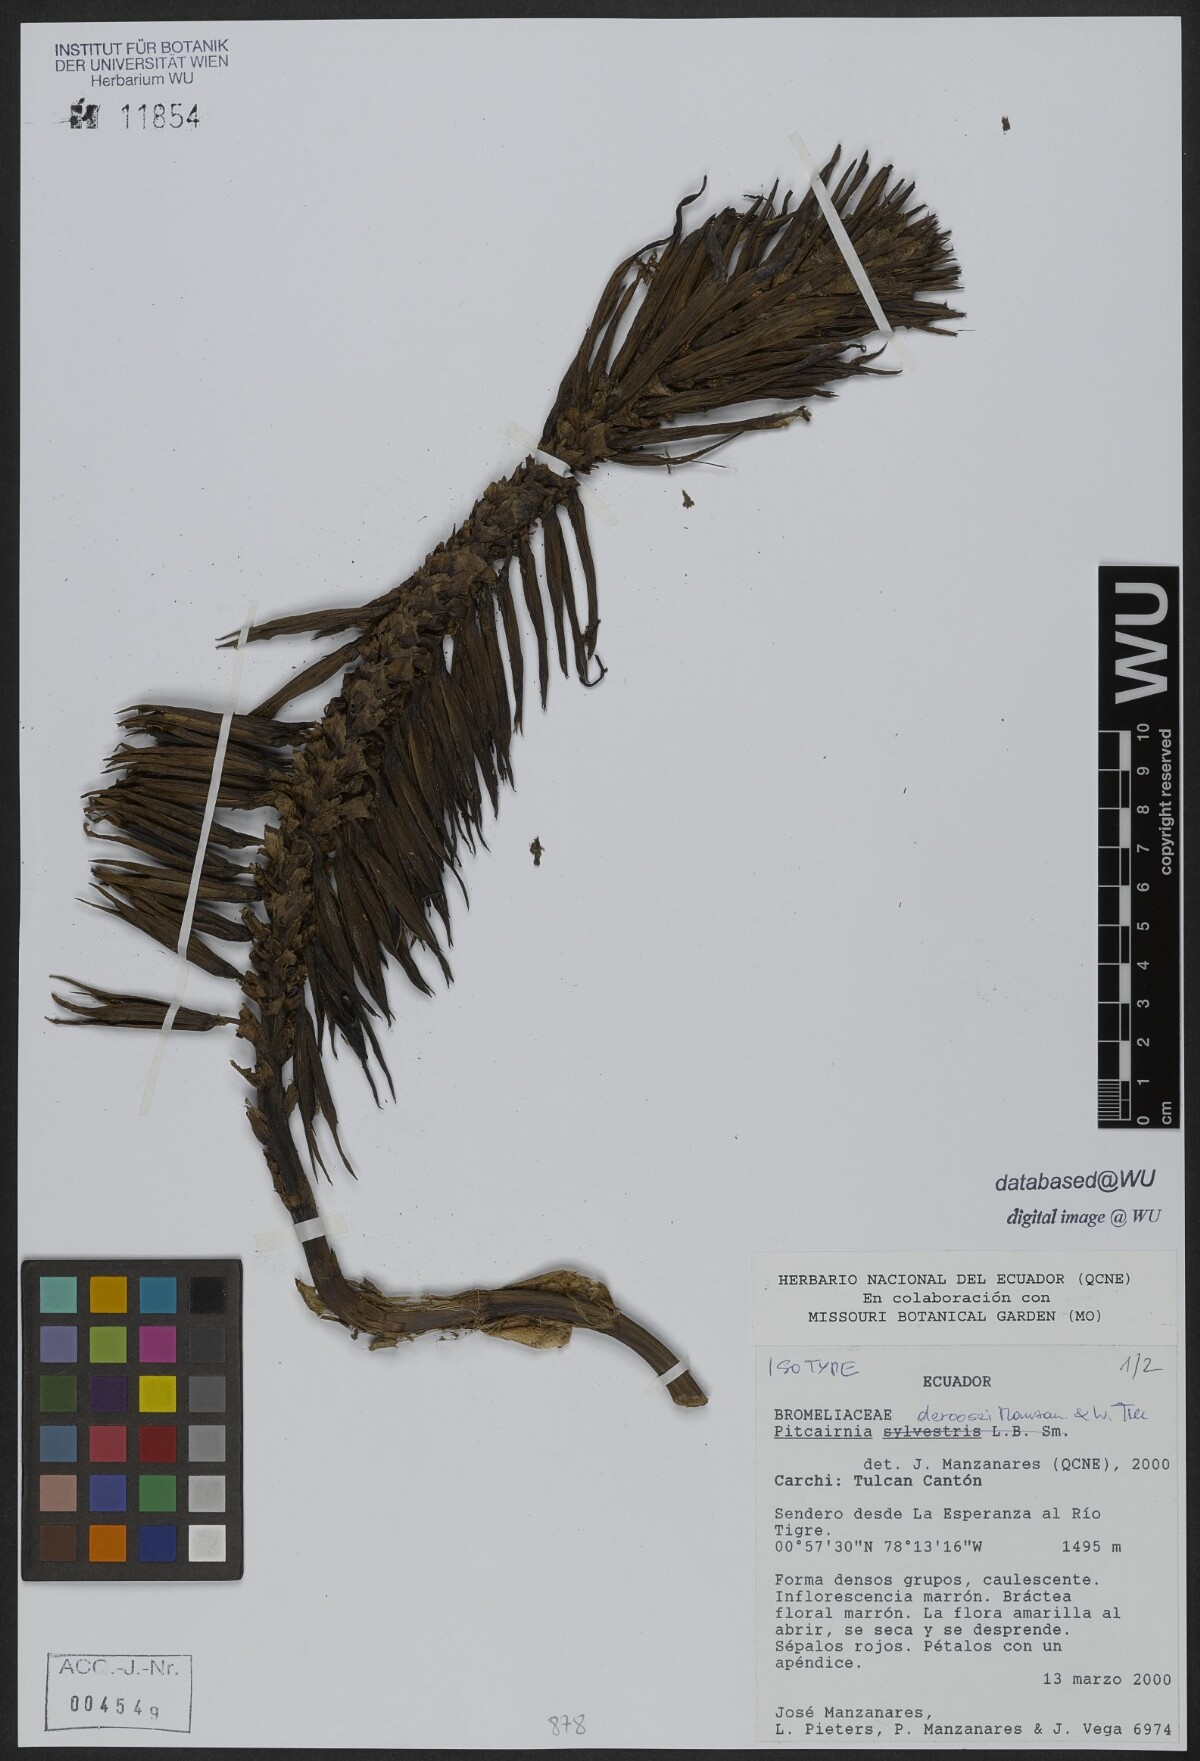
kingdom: Plantae
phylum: Tracheophyta
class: Liliopsida
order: Poales
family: Bromeliaceae
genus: Pitcairnia
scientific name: Pitcairnia deroosei
